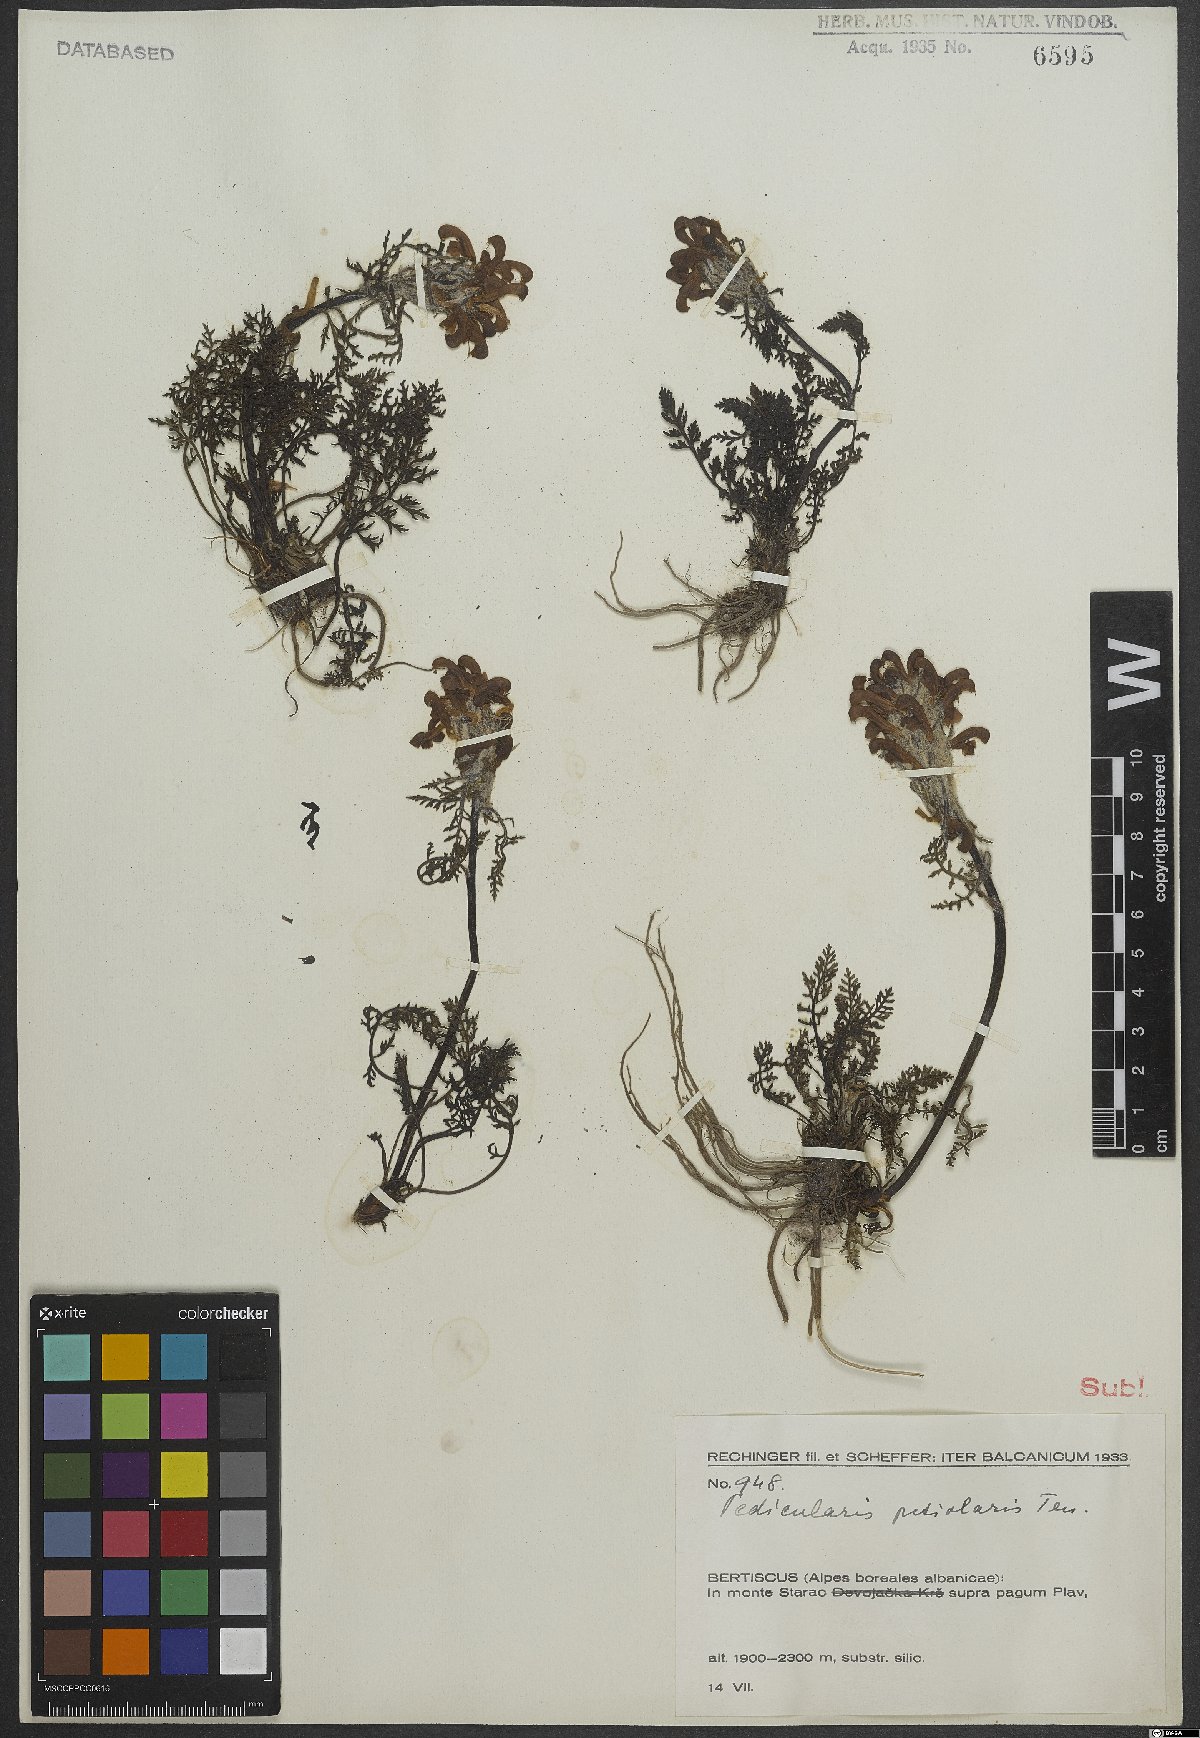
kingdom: Plantae
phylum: Tracheophyta
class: Magnoliopsida
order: Lamiales
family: Orobanchaceae
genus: Pedicularis
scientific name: Pedicularis petiolaris
